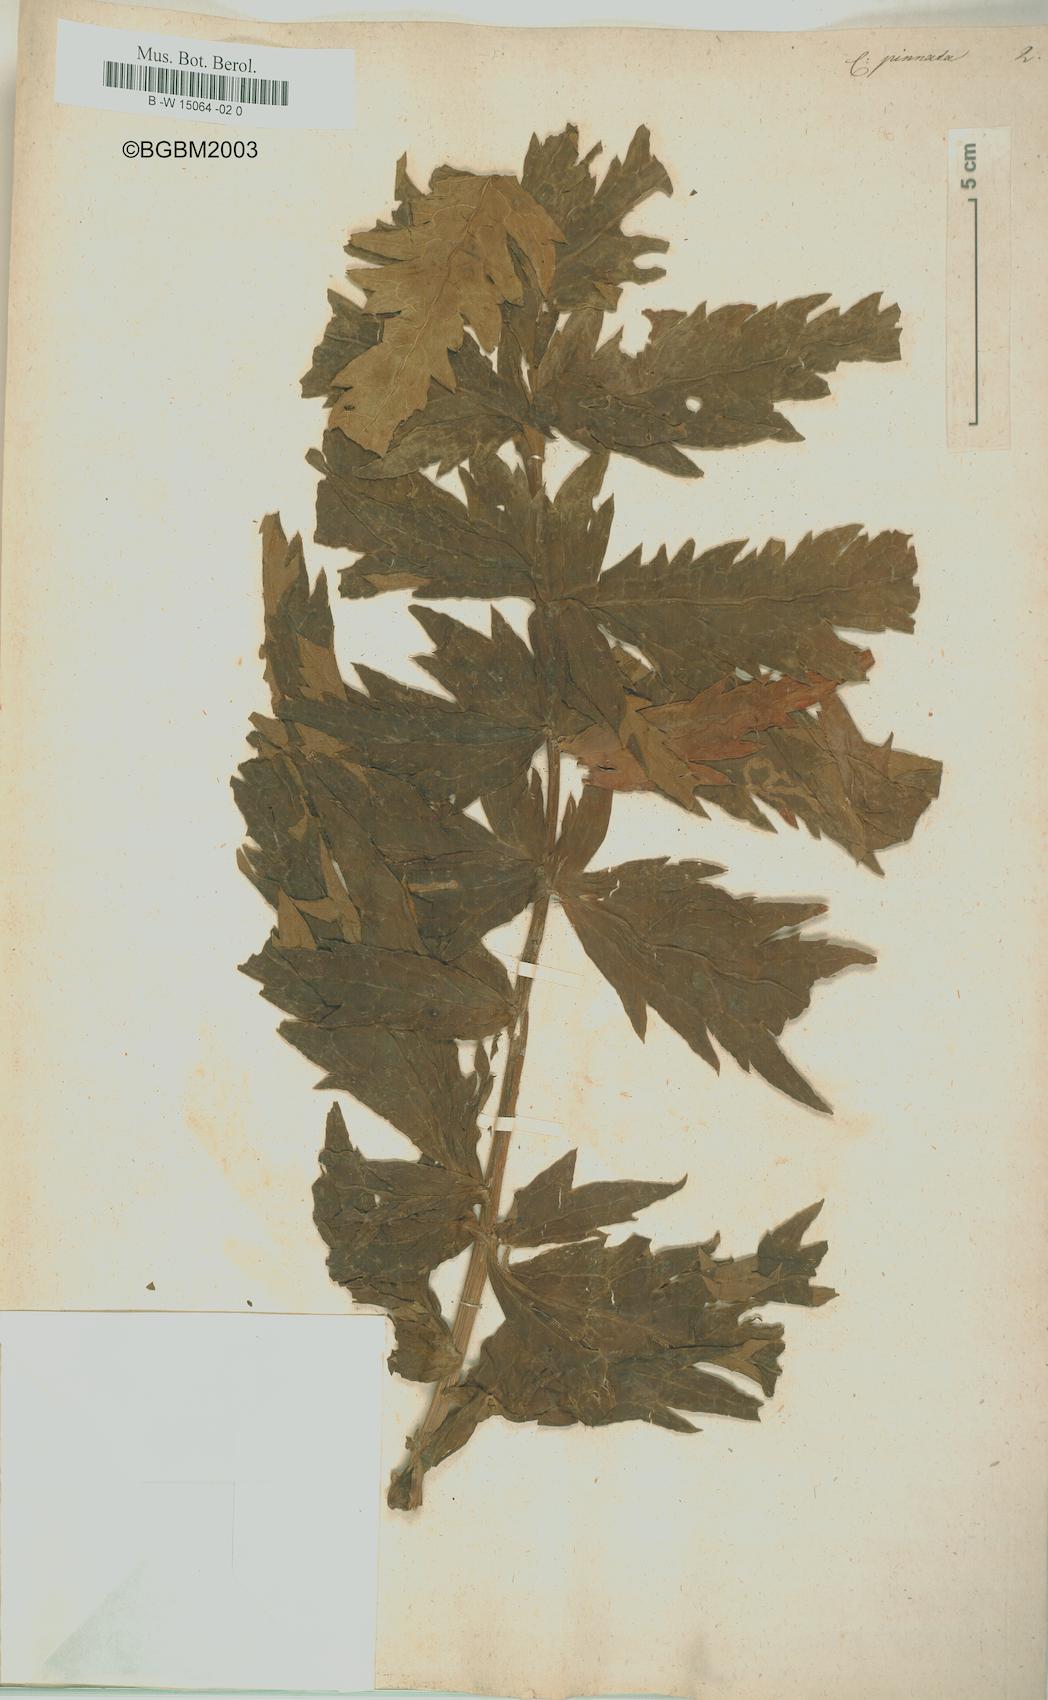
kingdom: Plantae
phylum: Tracheophyta
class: Magnoliopsida
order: Asterales
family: Asteraceae
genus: Jacobaea
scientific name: Jacobaea othonnae
